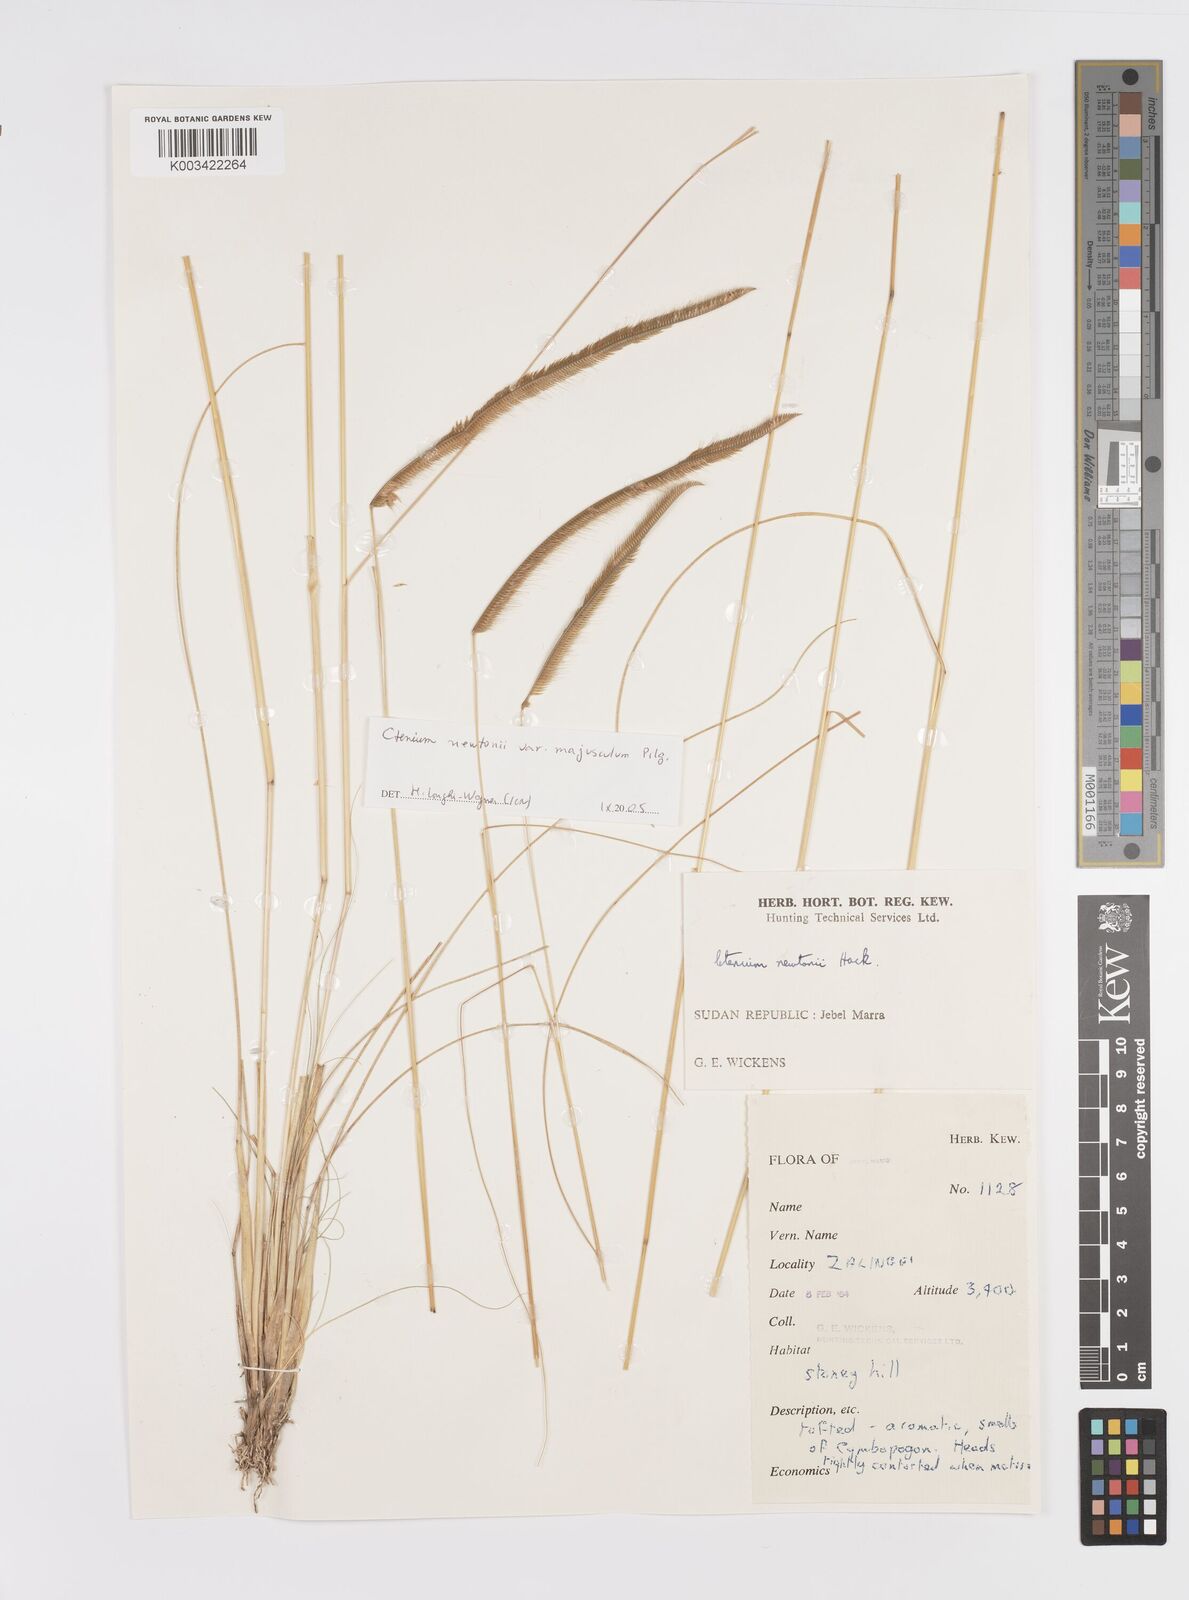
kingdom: Plantae
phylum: Tracheophyta
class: Liliopsida
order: Poales
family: Poaceae
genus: Ctenium
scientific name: Ctenium newtonii
